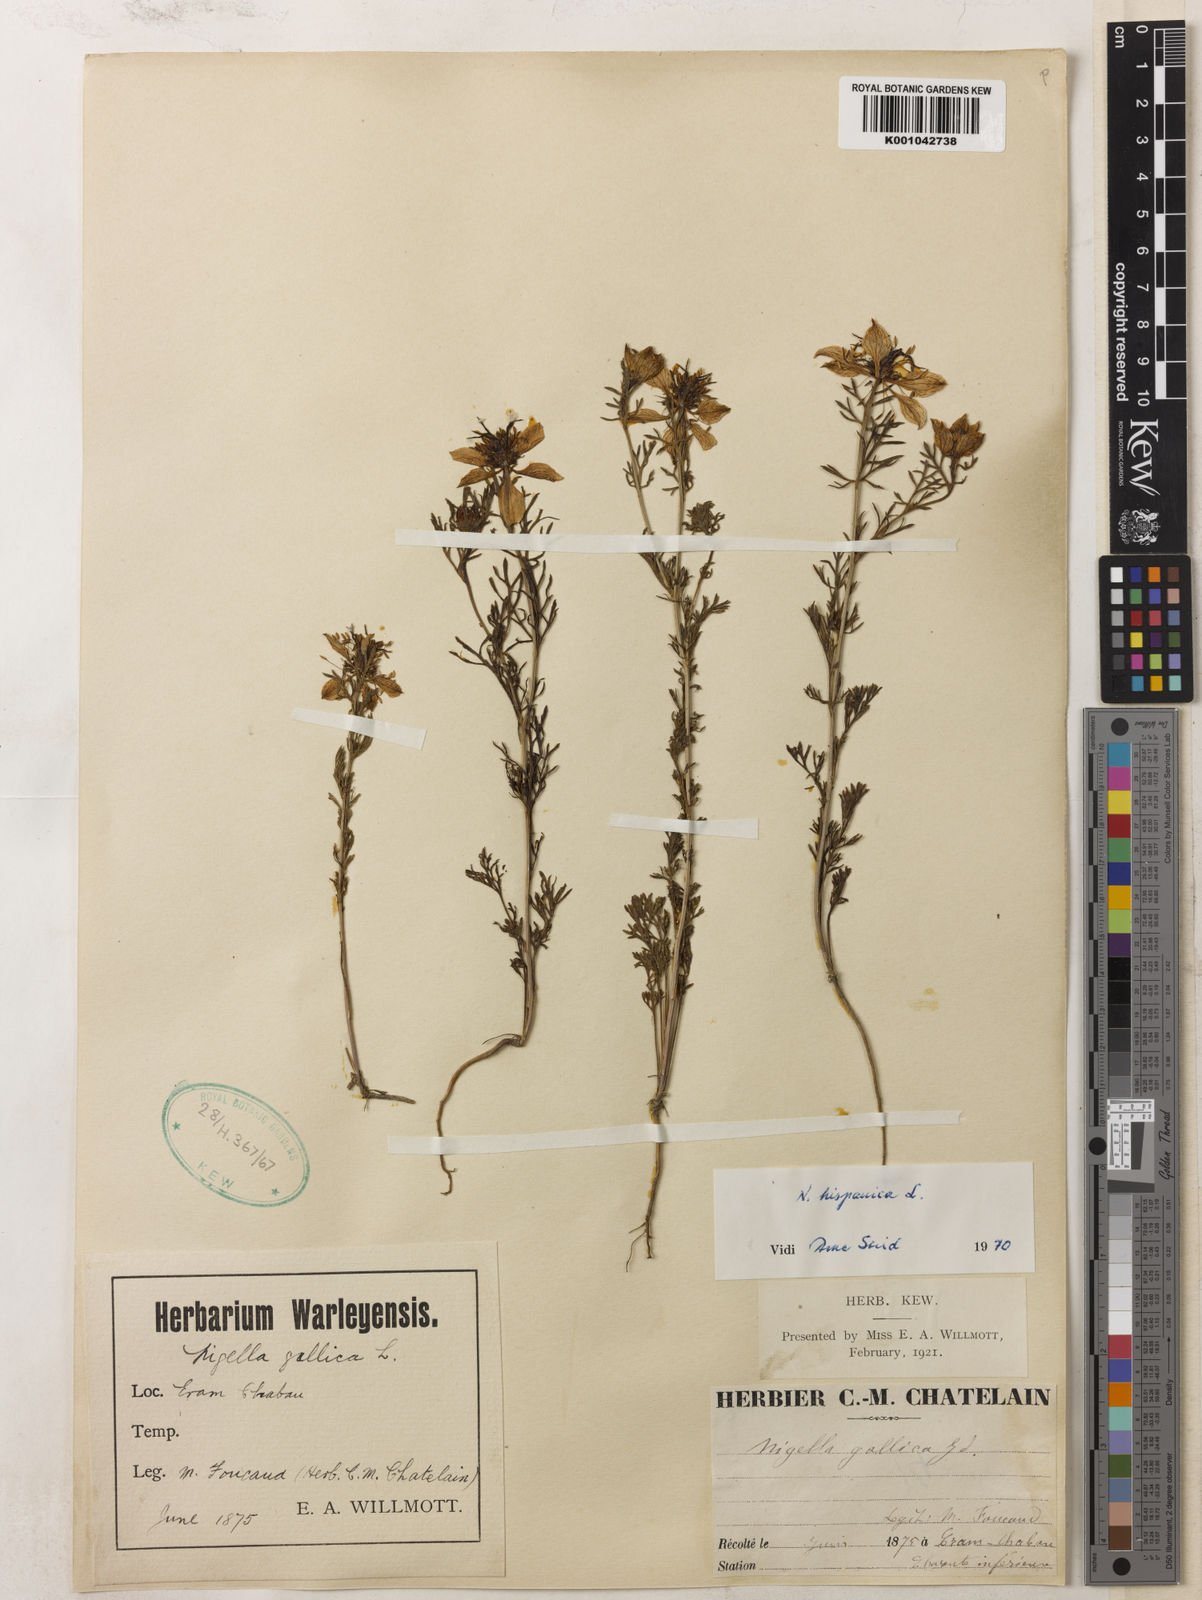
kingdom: Plantae
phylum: Tracheophyta
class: Magnoliopsida
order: Ranunculales
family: Ranunculaceae
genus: Nigella
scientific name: Nigella hispanica
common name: Fennel-flower
